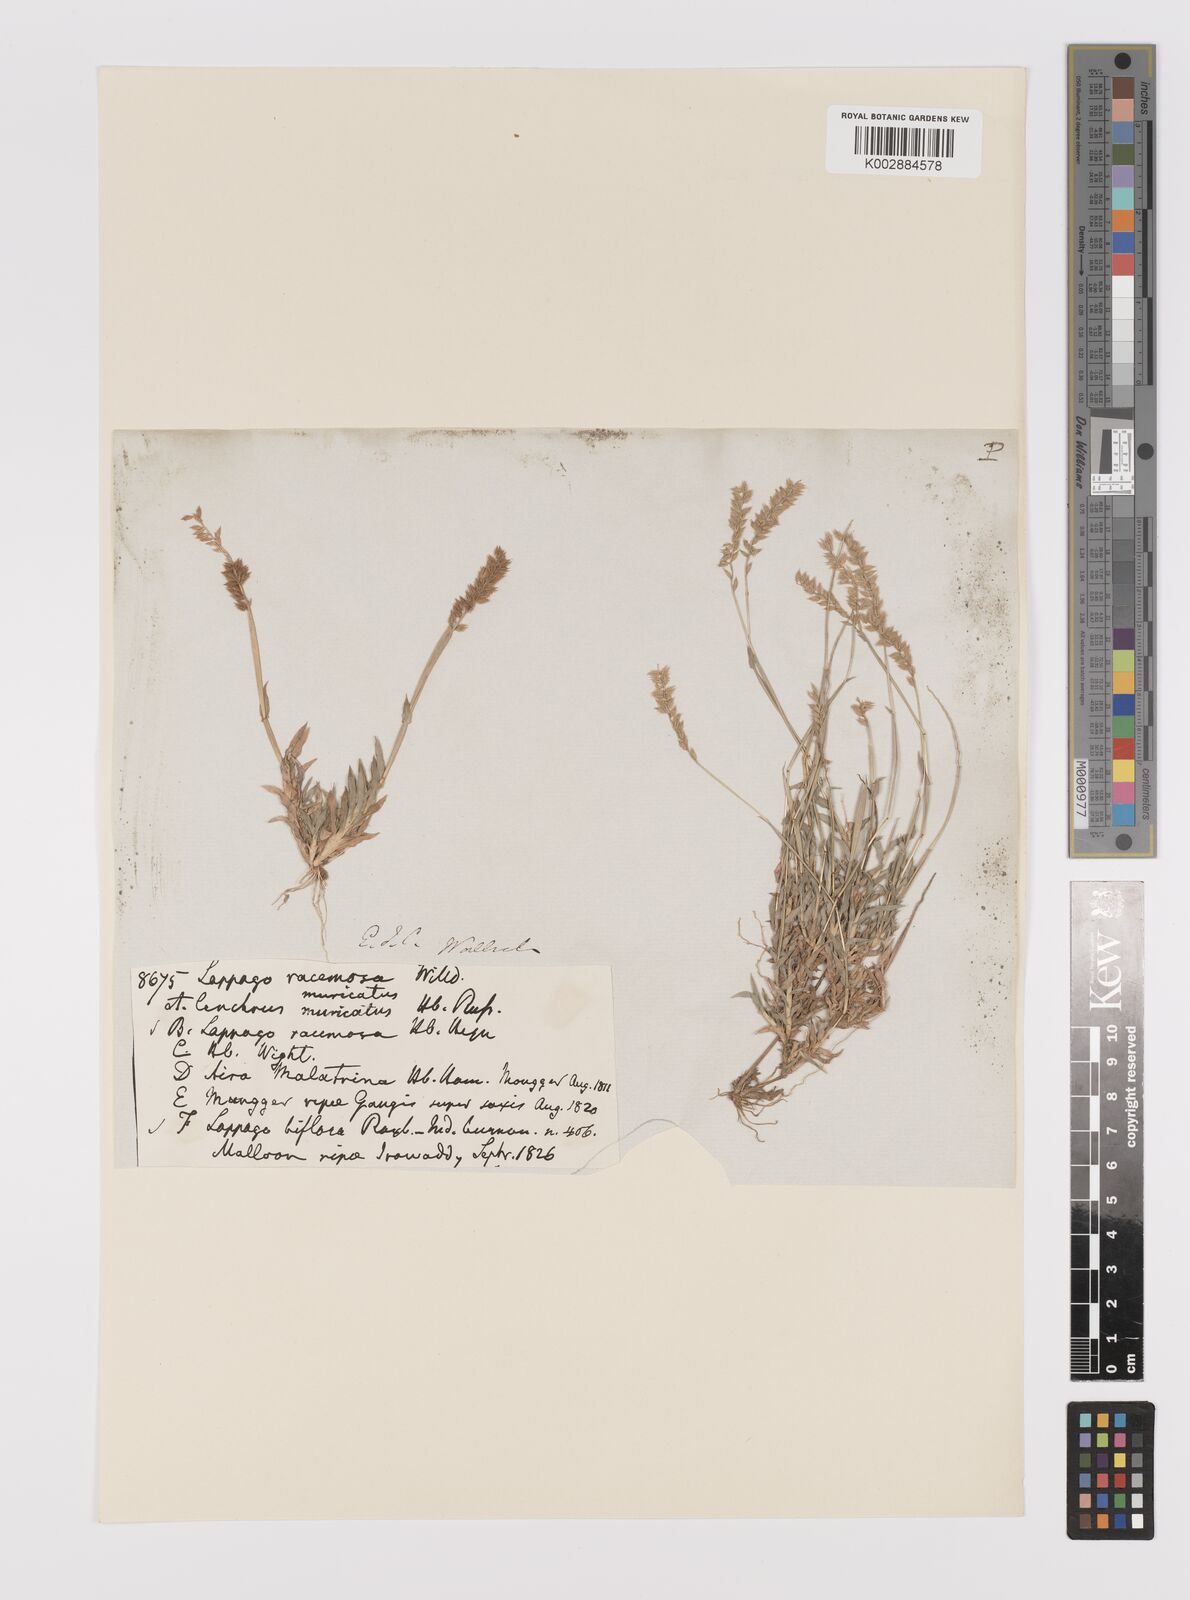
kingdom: Plantae
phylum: Tracheophyta
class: Liliopsida
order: Poales
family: Poaceae
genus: Tragus
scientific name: Tragus mongolorum
